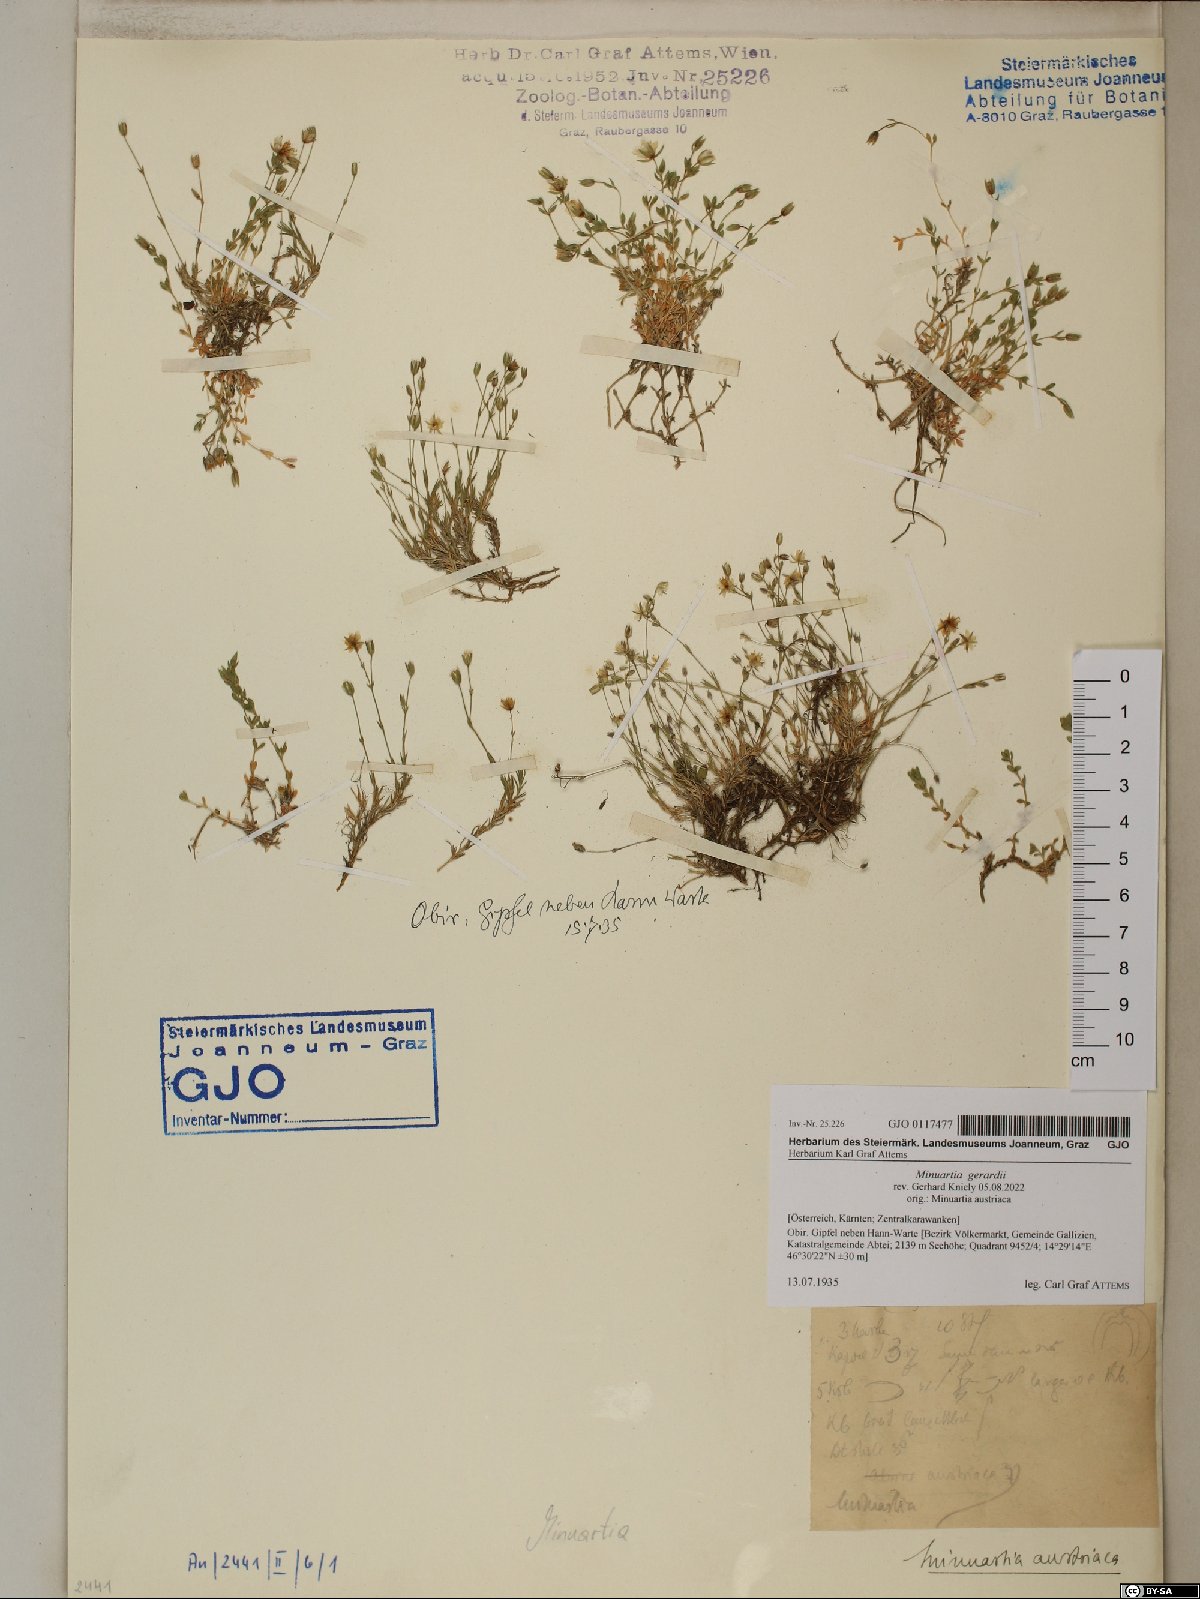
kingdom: Plantae
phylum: Tracheophyta
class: Magnoliopsida
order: Caryophyllales
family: Caryophyllaceae
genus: Sabulina
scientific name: Sabulina verna
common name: Spring sandwort
